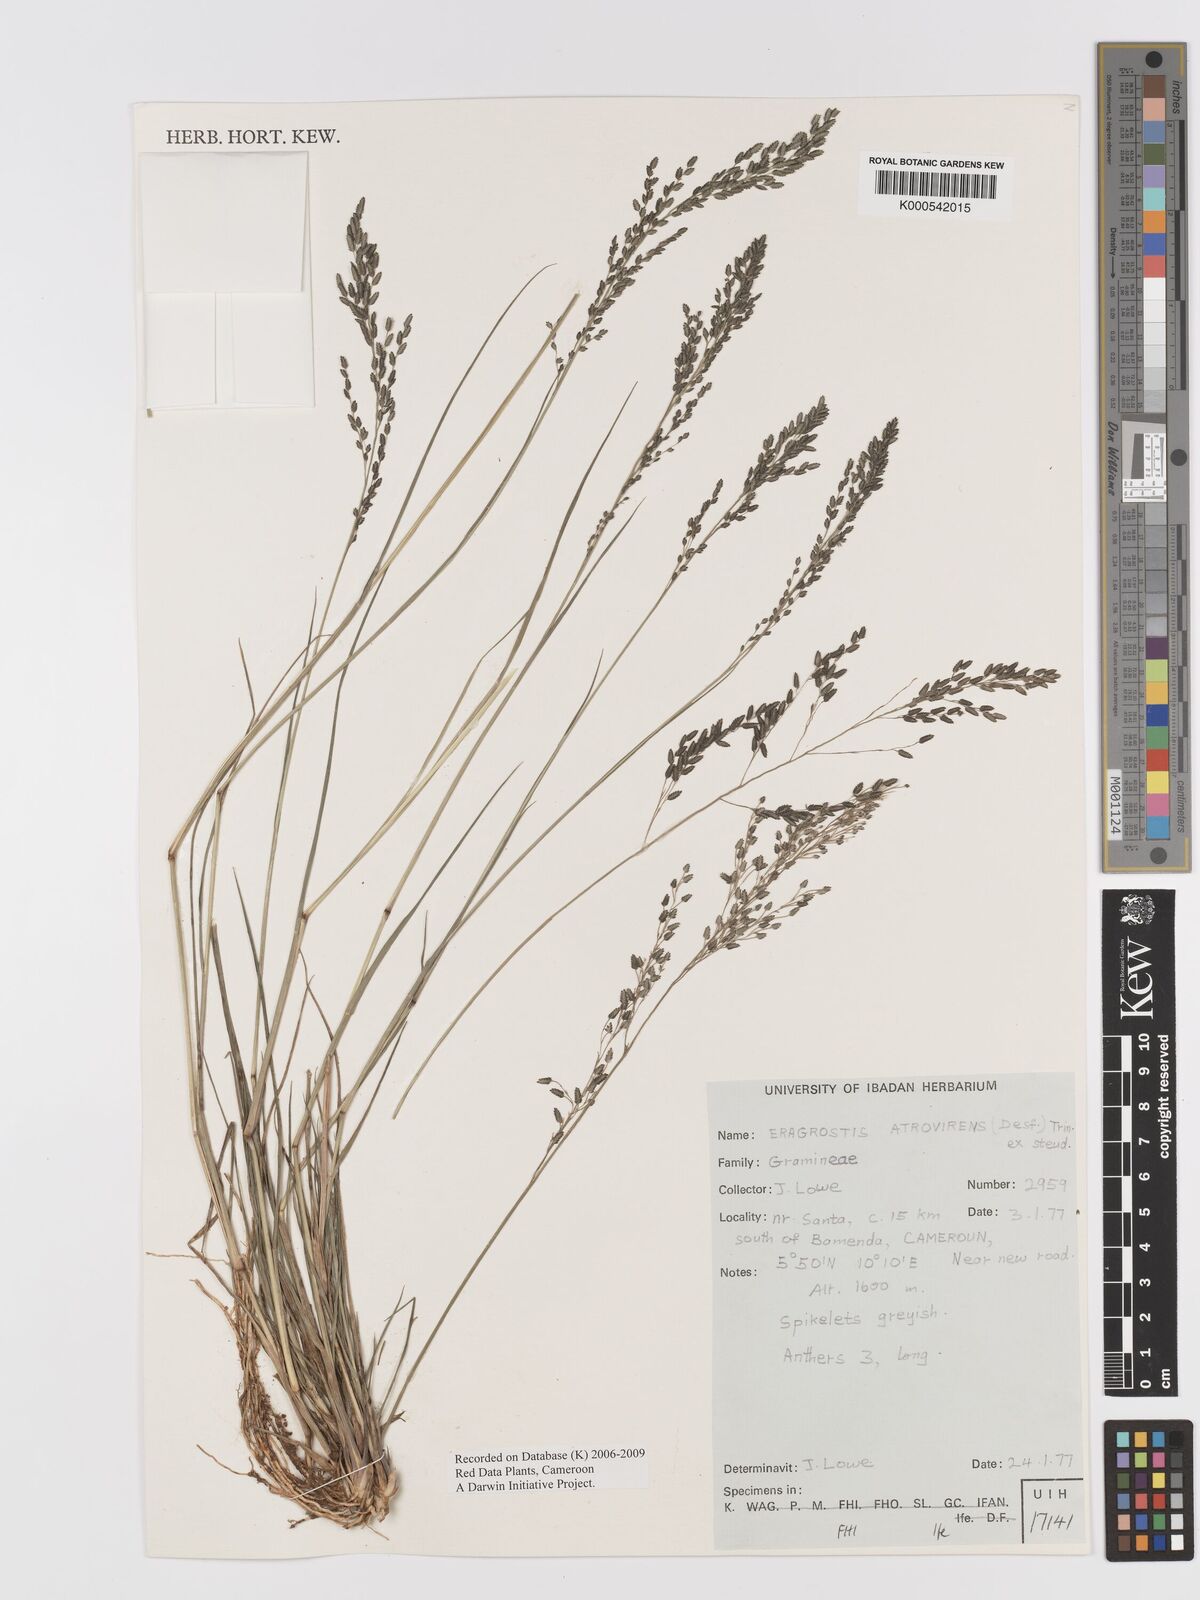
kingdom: Plantae
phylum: Tracheophyta
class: Liliopsida
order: Poales
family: Poaceae
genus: Eragrostis
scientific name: Eragrostis camerunensis
